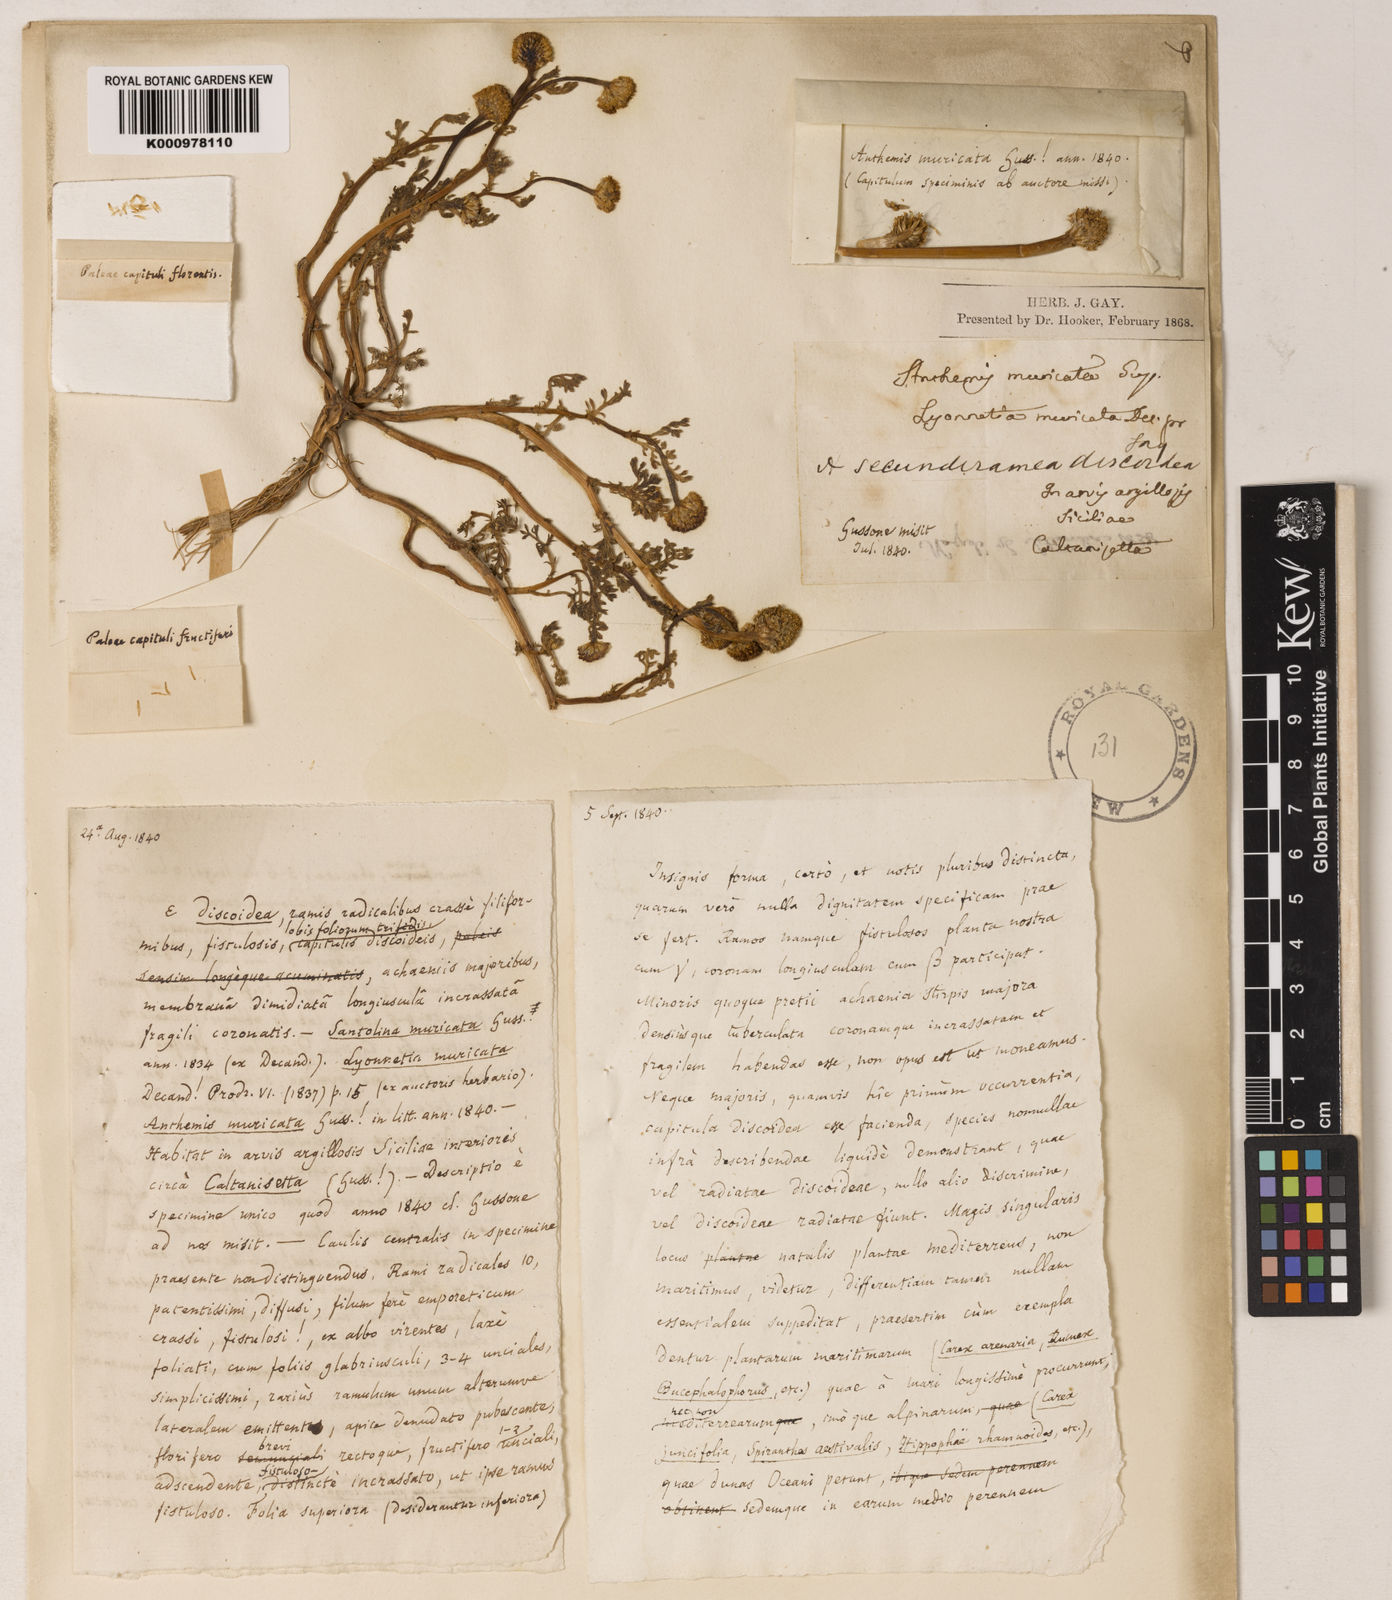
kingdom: Plantae
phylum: Tracheophyta
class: Magnoliopsida
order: Asterales
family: Asteraceae
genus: Anthemis
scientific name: Anthemis muricata
